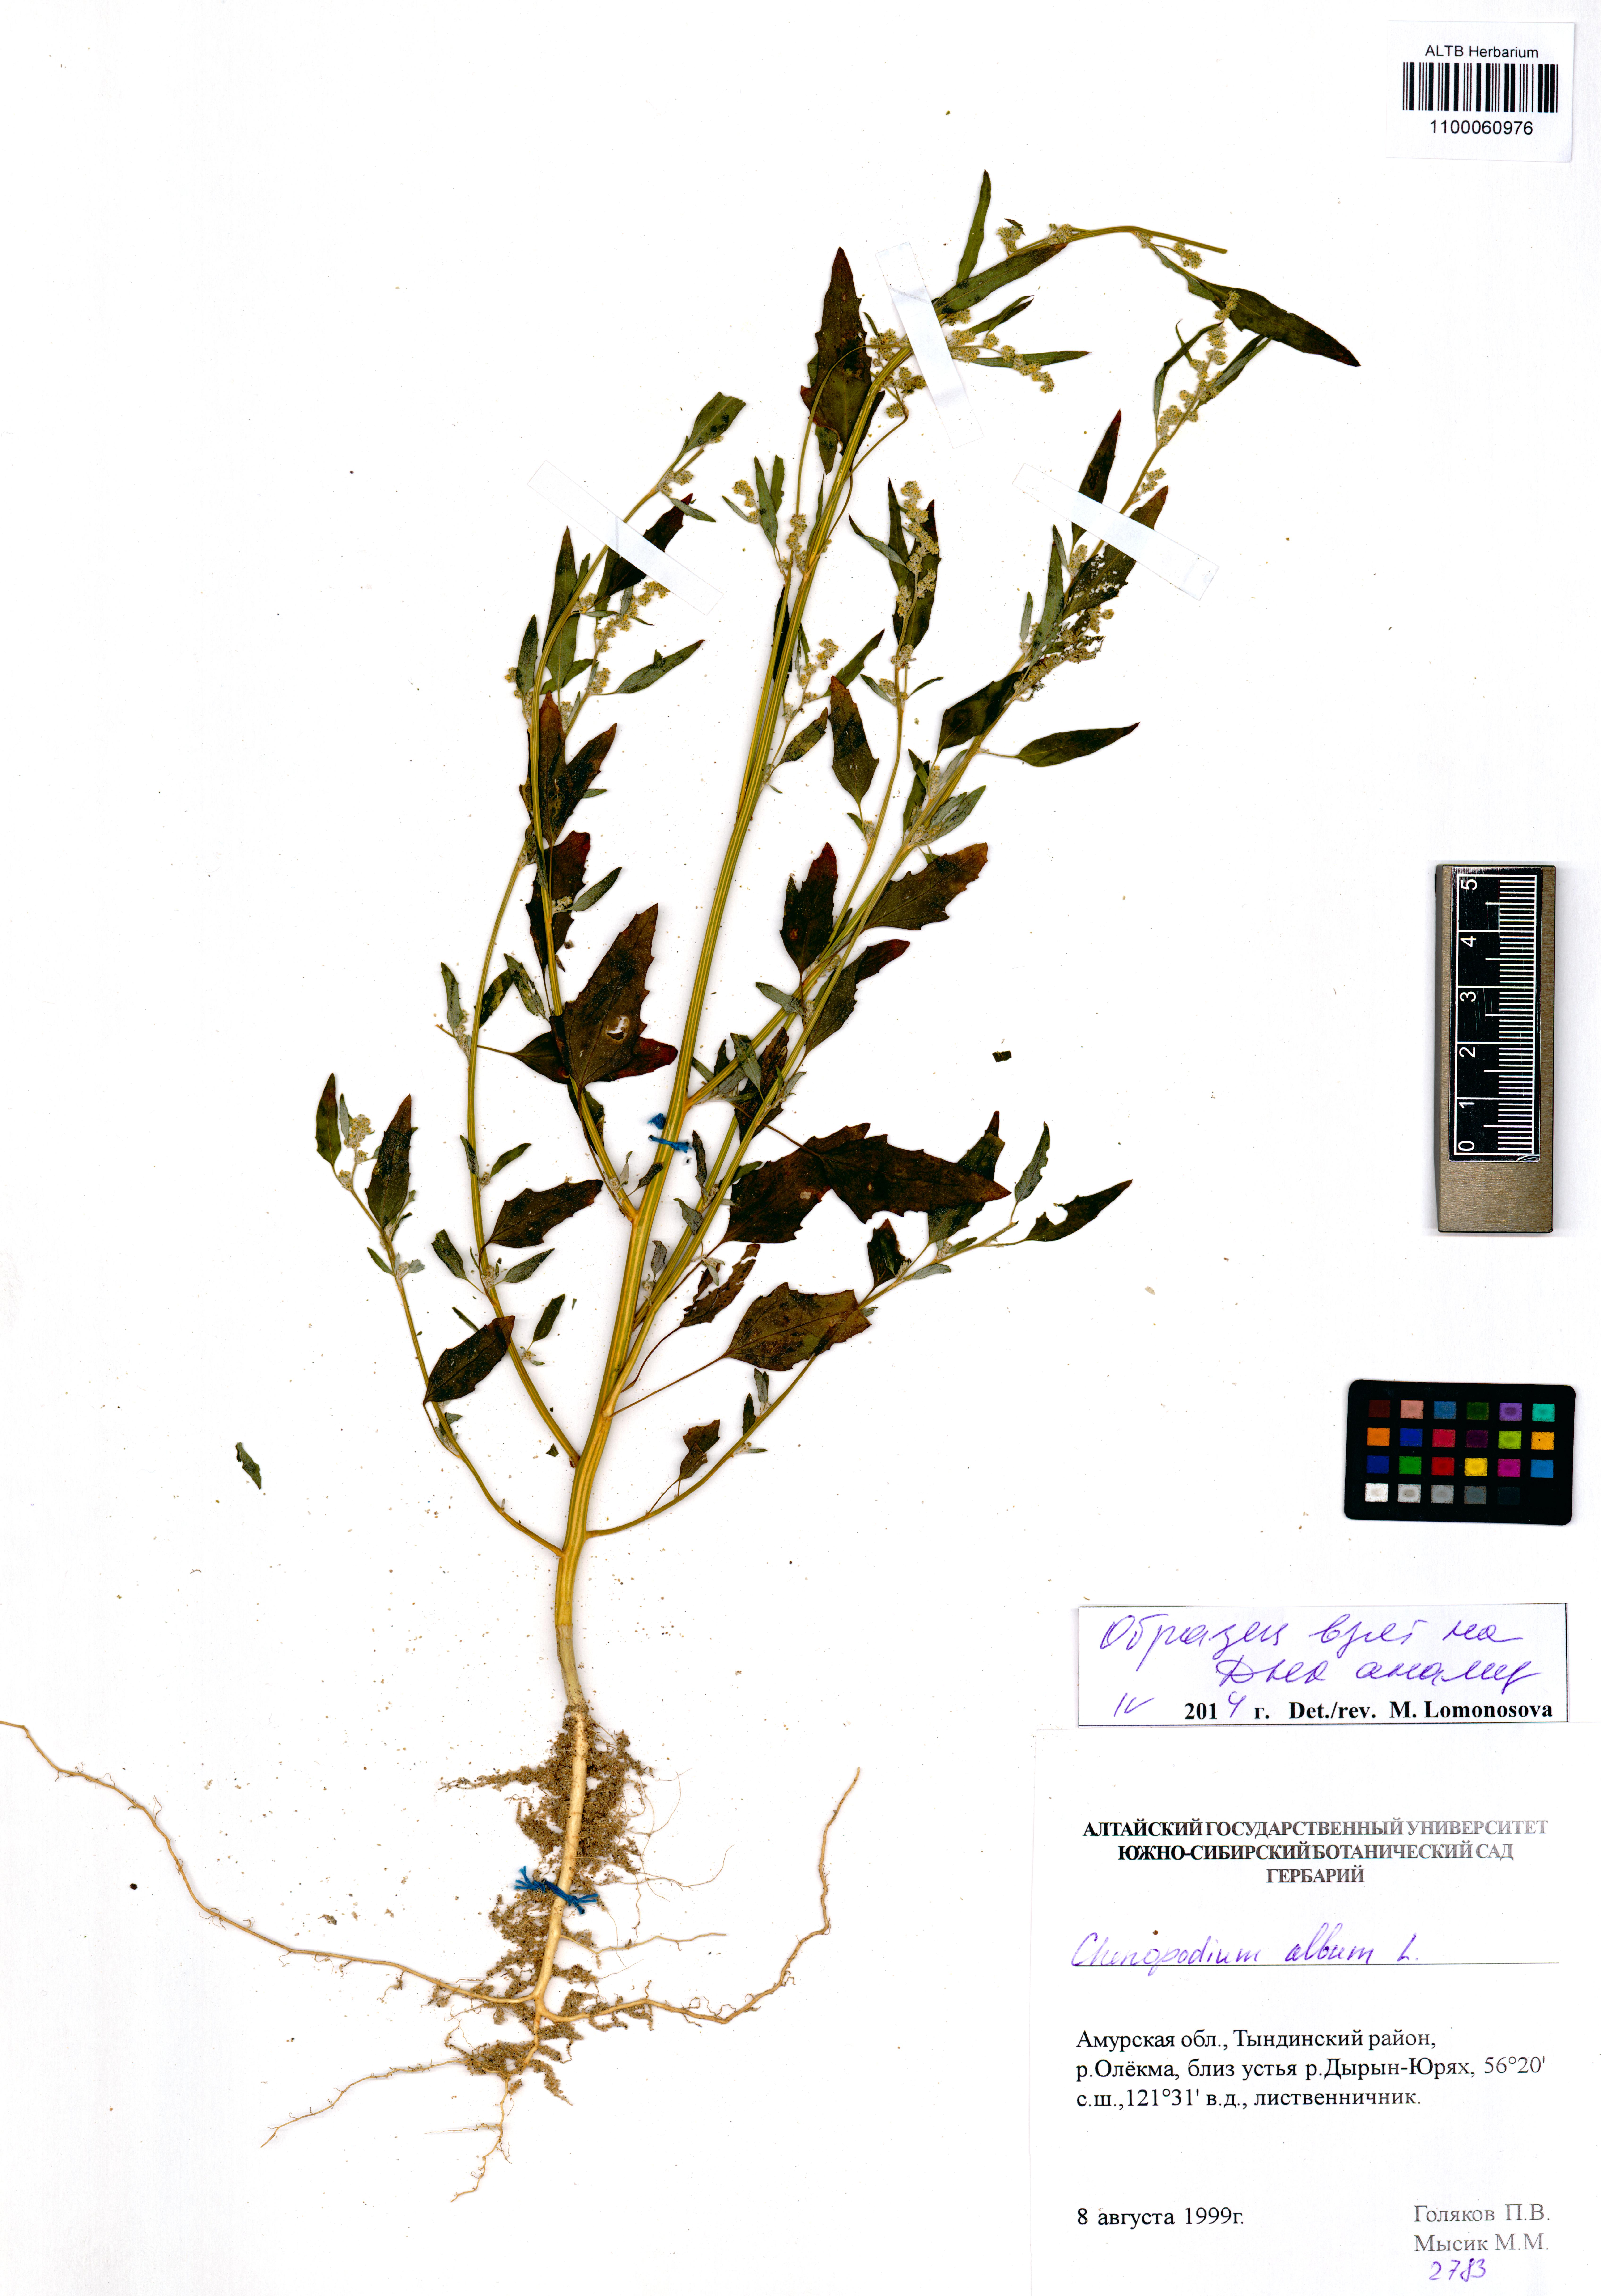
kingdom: Plantae
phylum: Tracheophyta
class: Magnoliopsida
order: Caryophyllales
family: Amaranthaceae
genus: Chenopodium
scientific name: Chenopodium album
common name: Fat-hen
